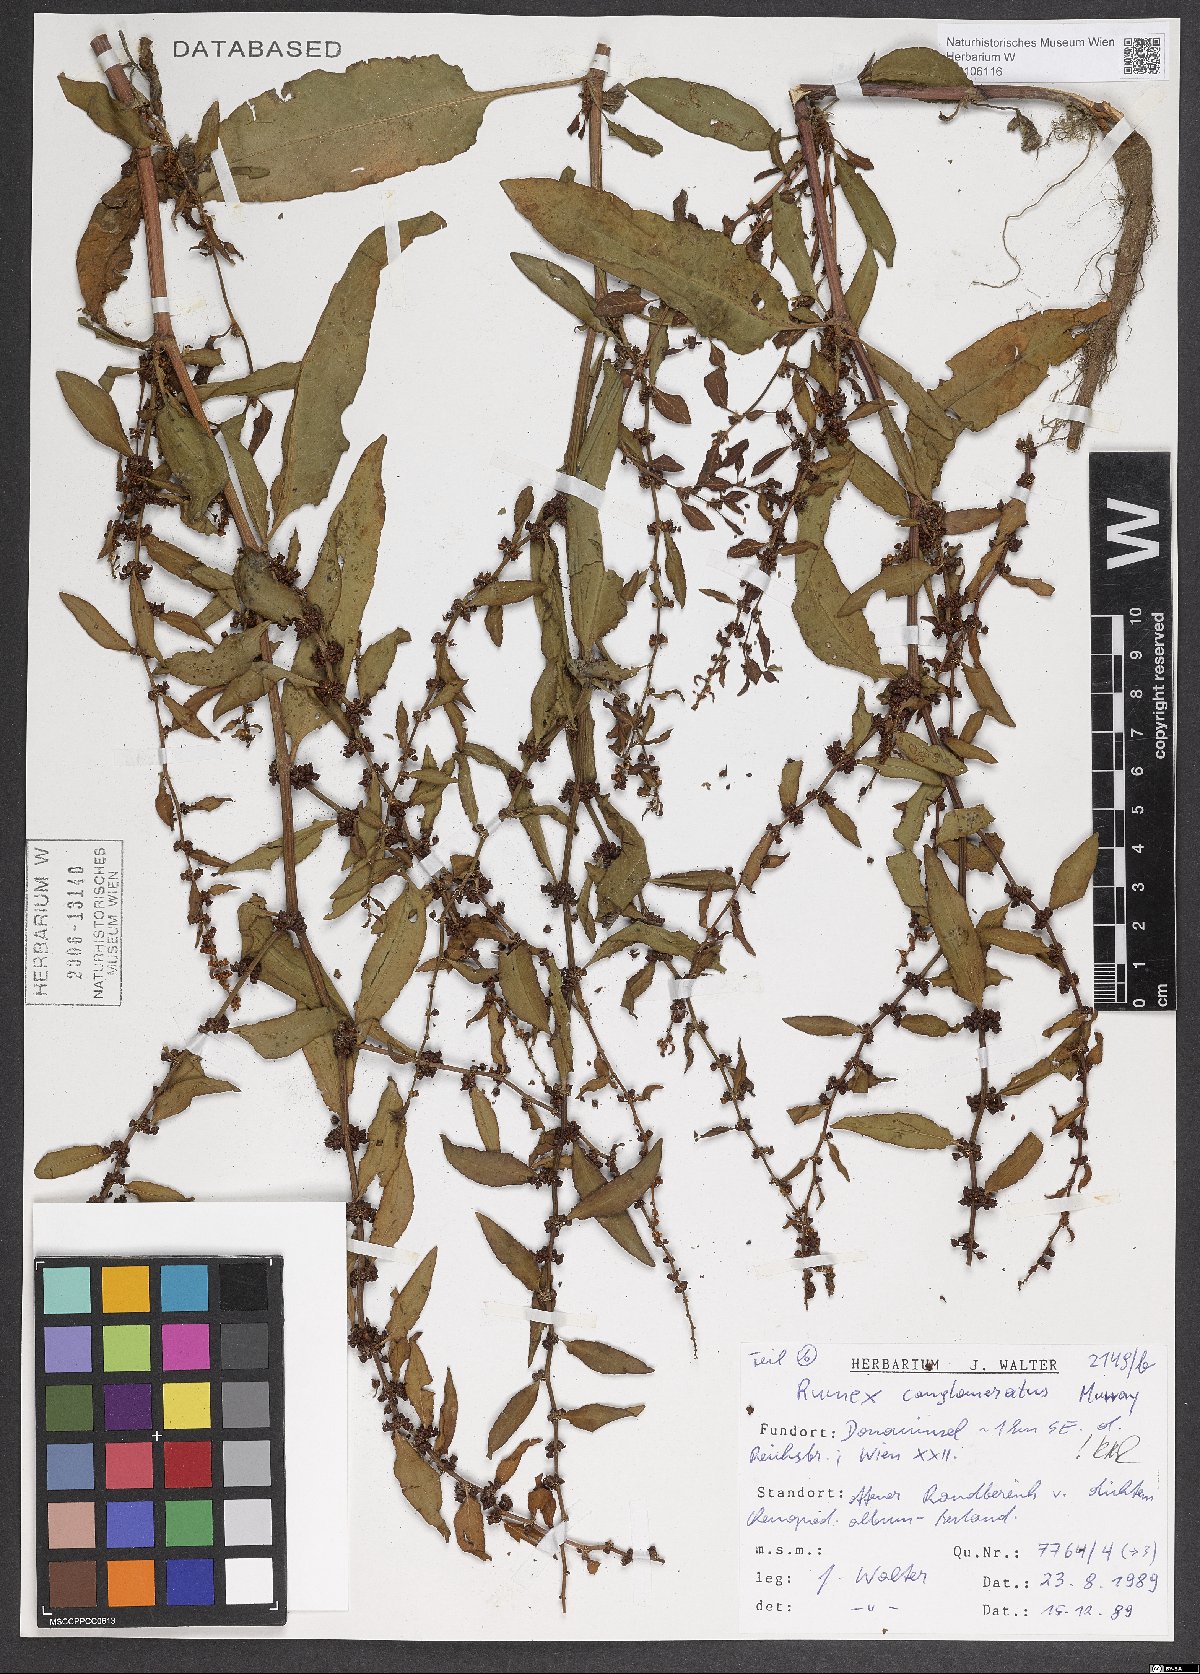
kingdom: Plantae
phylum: Tracheophyta
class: Magnoliopsida
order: Caryophyllales
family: Polygonaceae
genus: Rumex
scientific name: Rumex conglomeratus
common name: Clustered dock
